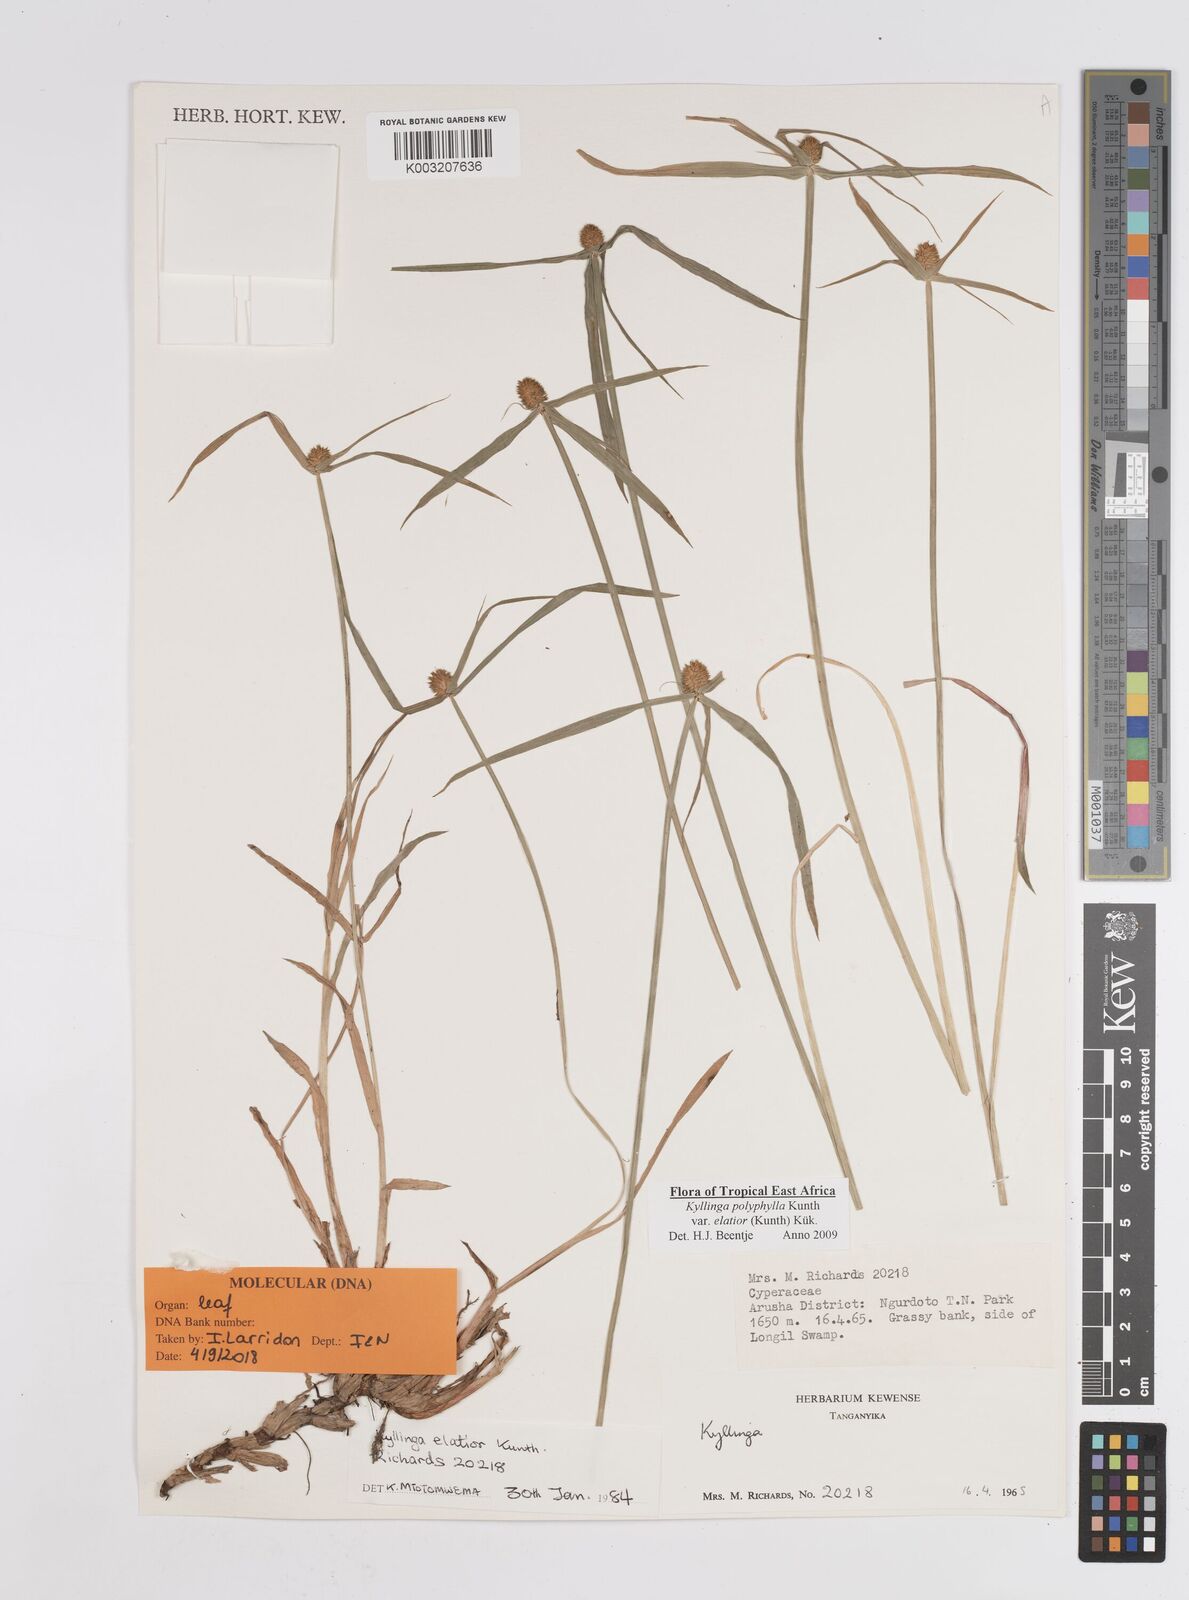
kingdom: Plantae
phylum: Tracheophyta
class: Liliopsida
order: Poales
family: Cyperaceae
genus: Cyperus
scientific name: Cyperus
